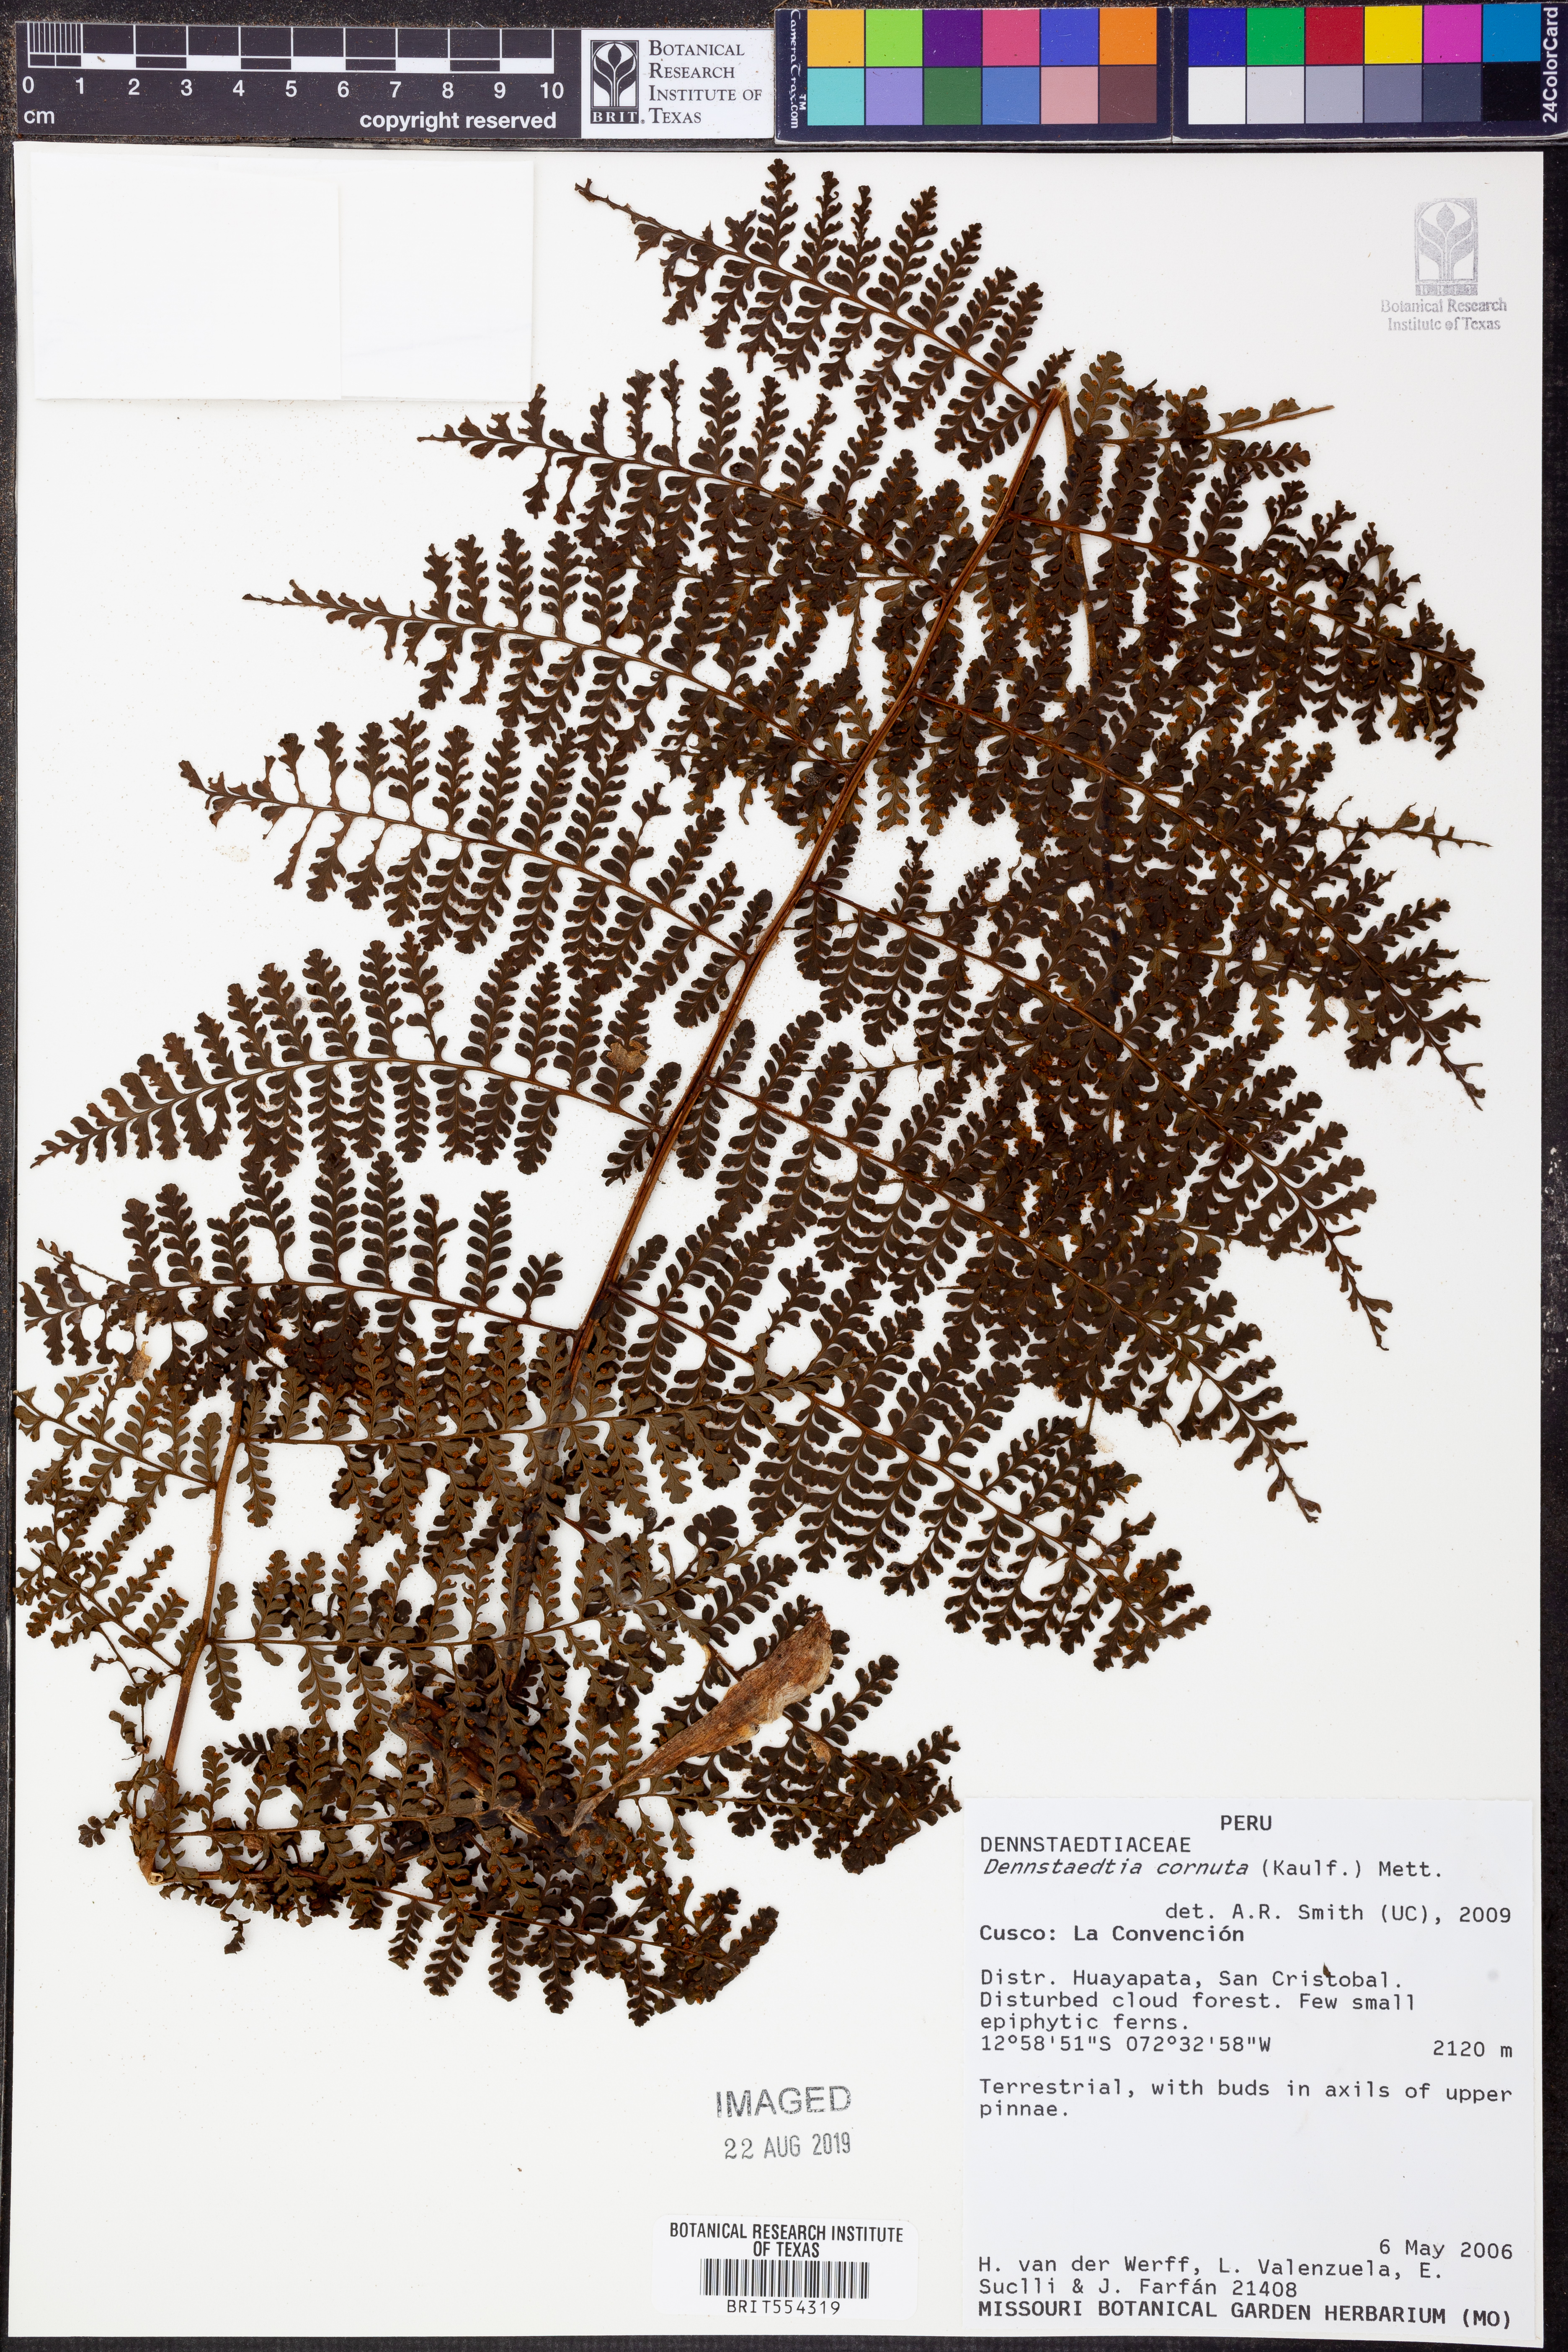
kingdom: Plantae
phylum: Tracheophyta
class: Polypodiopsida
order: Polypodiales
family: Dennstaedtiaceae
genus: Dennstaedtia
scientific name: Dennstaedtia cornuta
